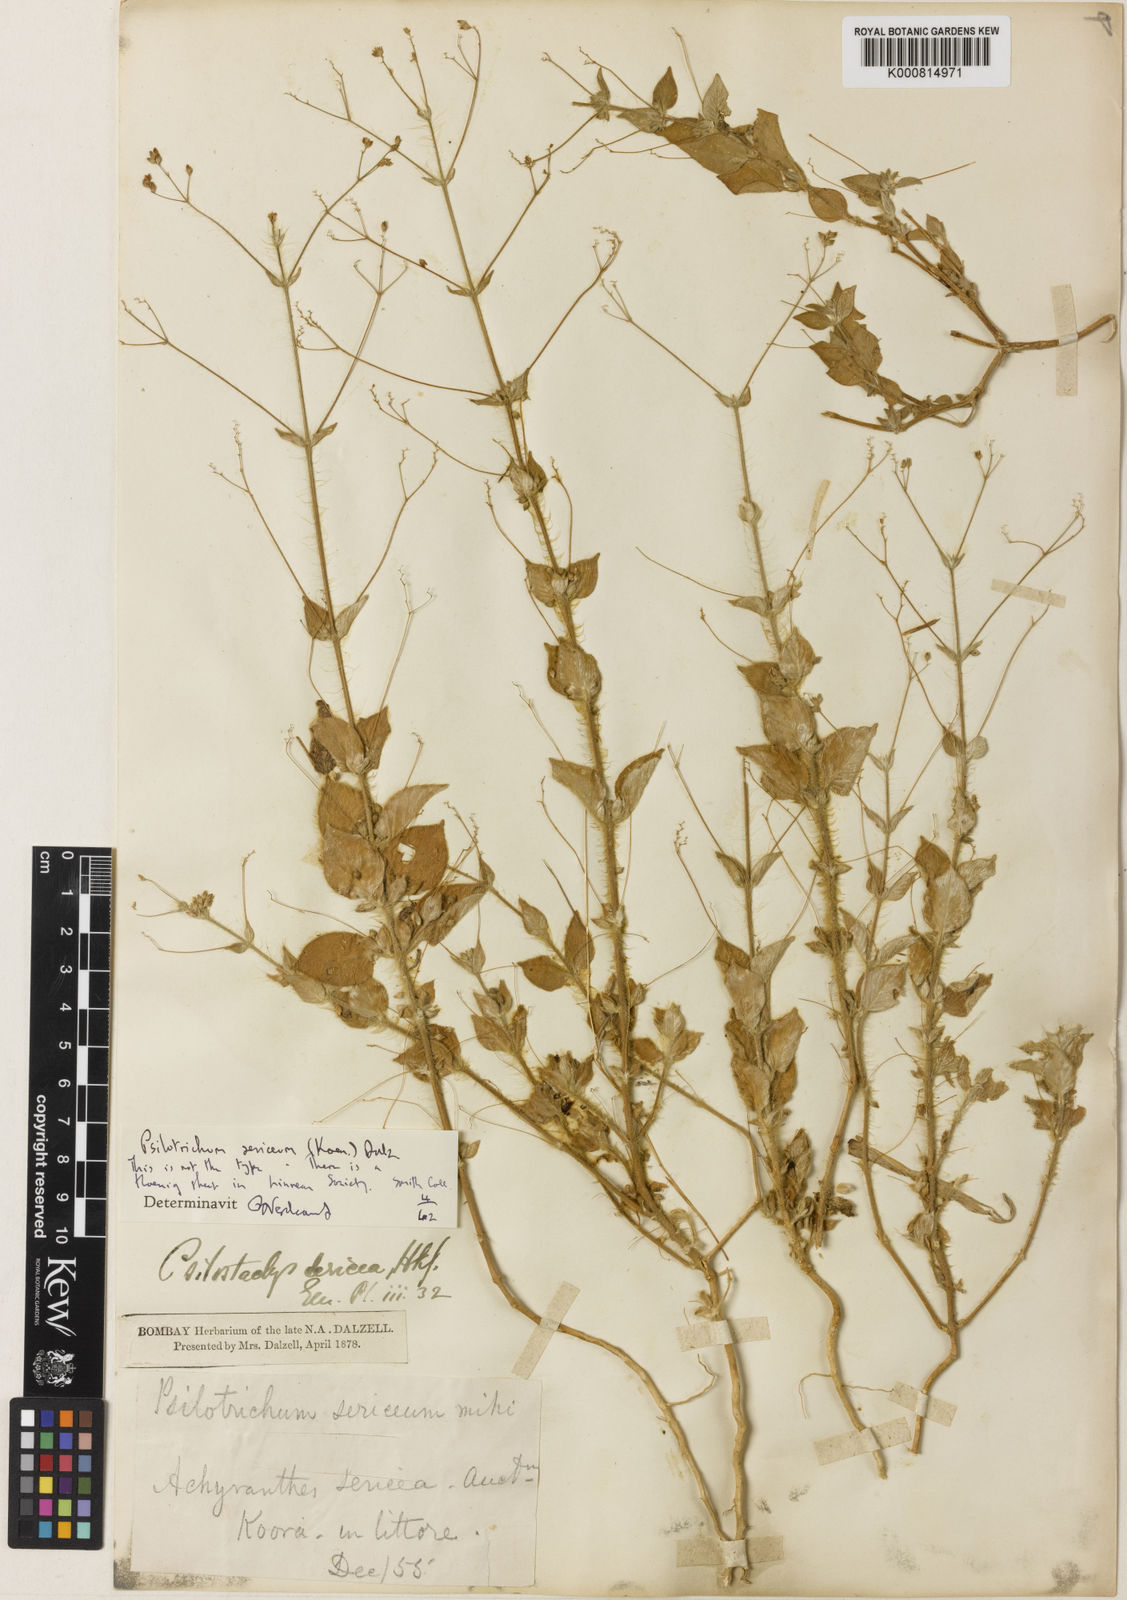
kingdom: Plantae
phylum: Tracheophyta
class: Magnoliopsida
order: Caryophyllales
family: Amaranthaceae
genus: Psilotrichum
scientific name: Psilotrichum
